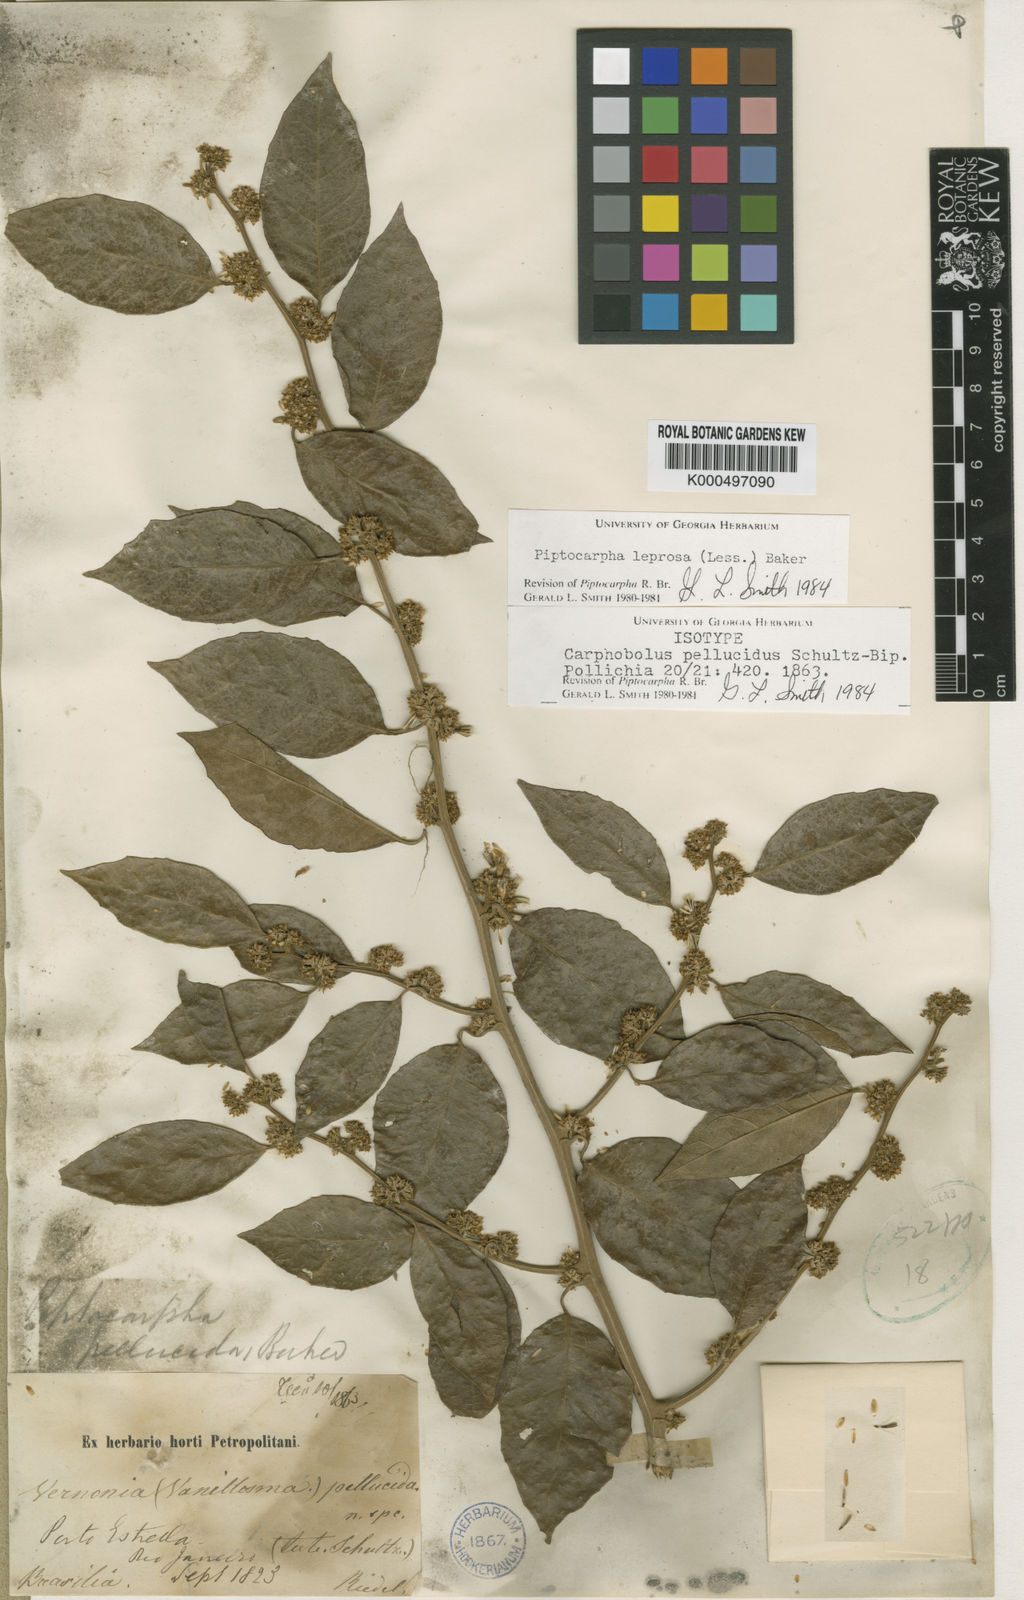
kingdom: Plantae
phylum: Tracheophyta
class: Magnoliopsida
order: Asterales
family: Asteraceae
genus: Piptocarpha
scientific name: Piptocarpha leprosa
